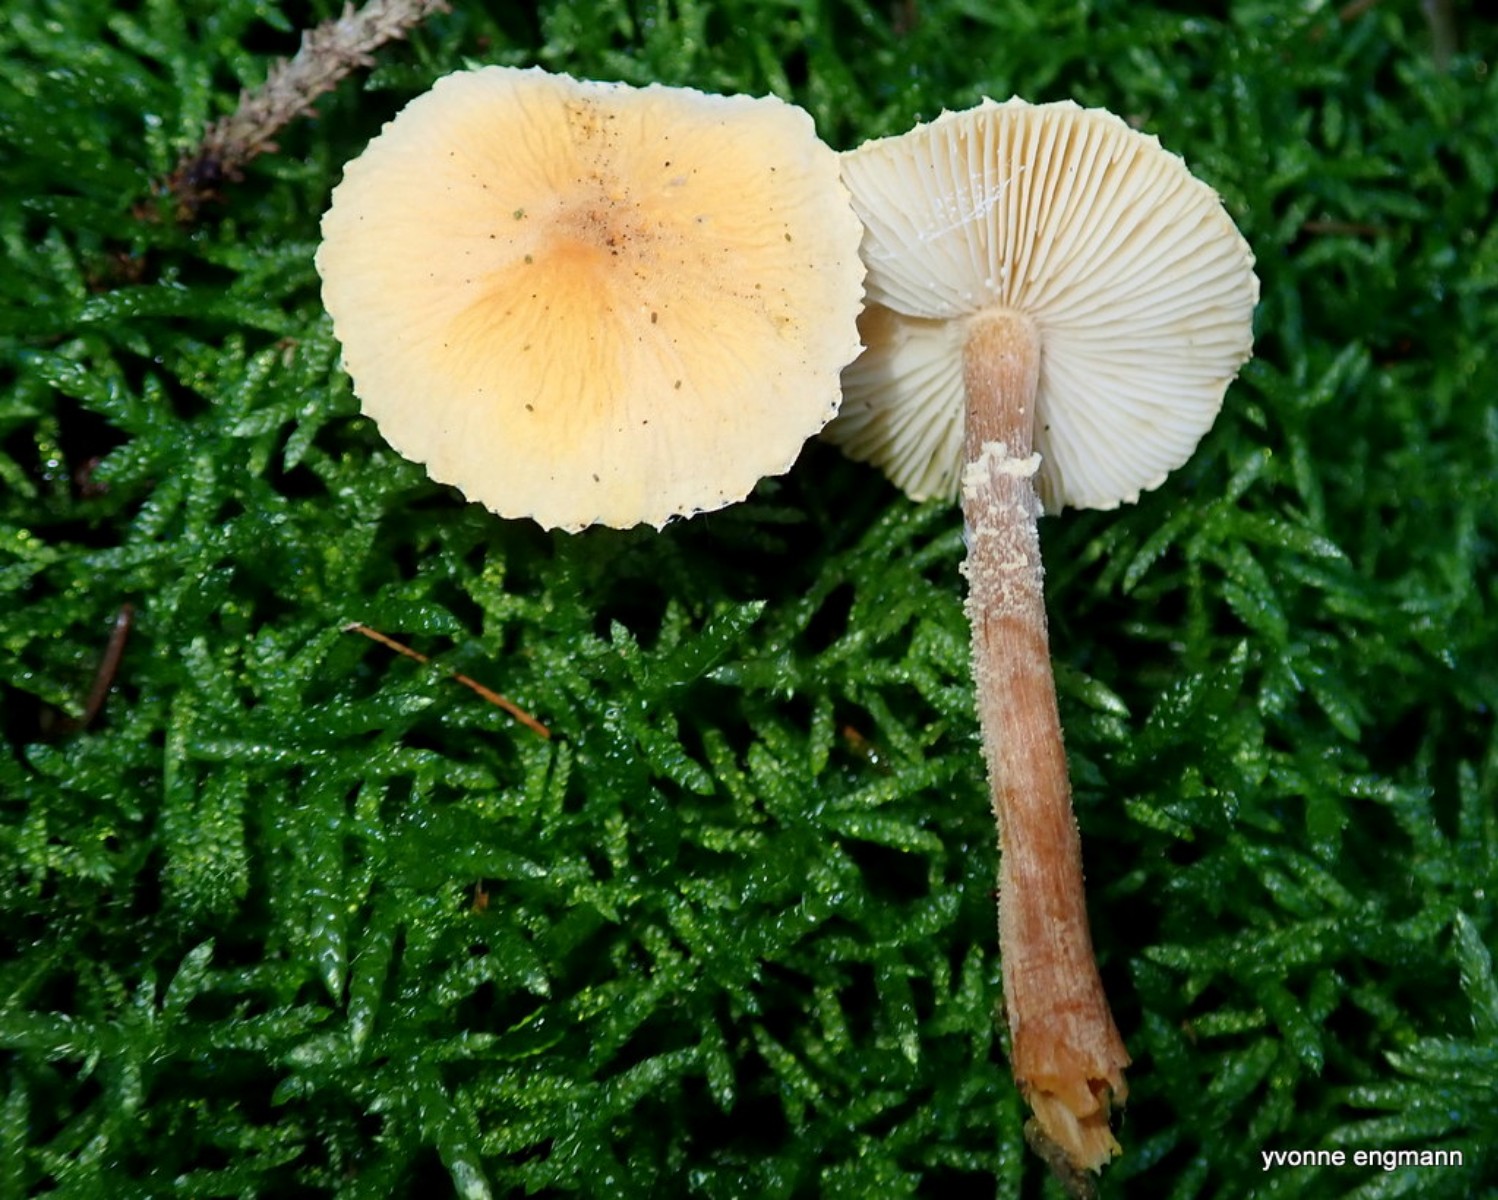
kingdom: Fungi
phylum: Basidiomycota
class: Agaricomycetes
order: Agaricales
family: Tricholomataceae
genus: Cystoderma
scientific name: Cystoderma amianthinum
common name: okkergul grynhat
